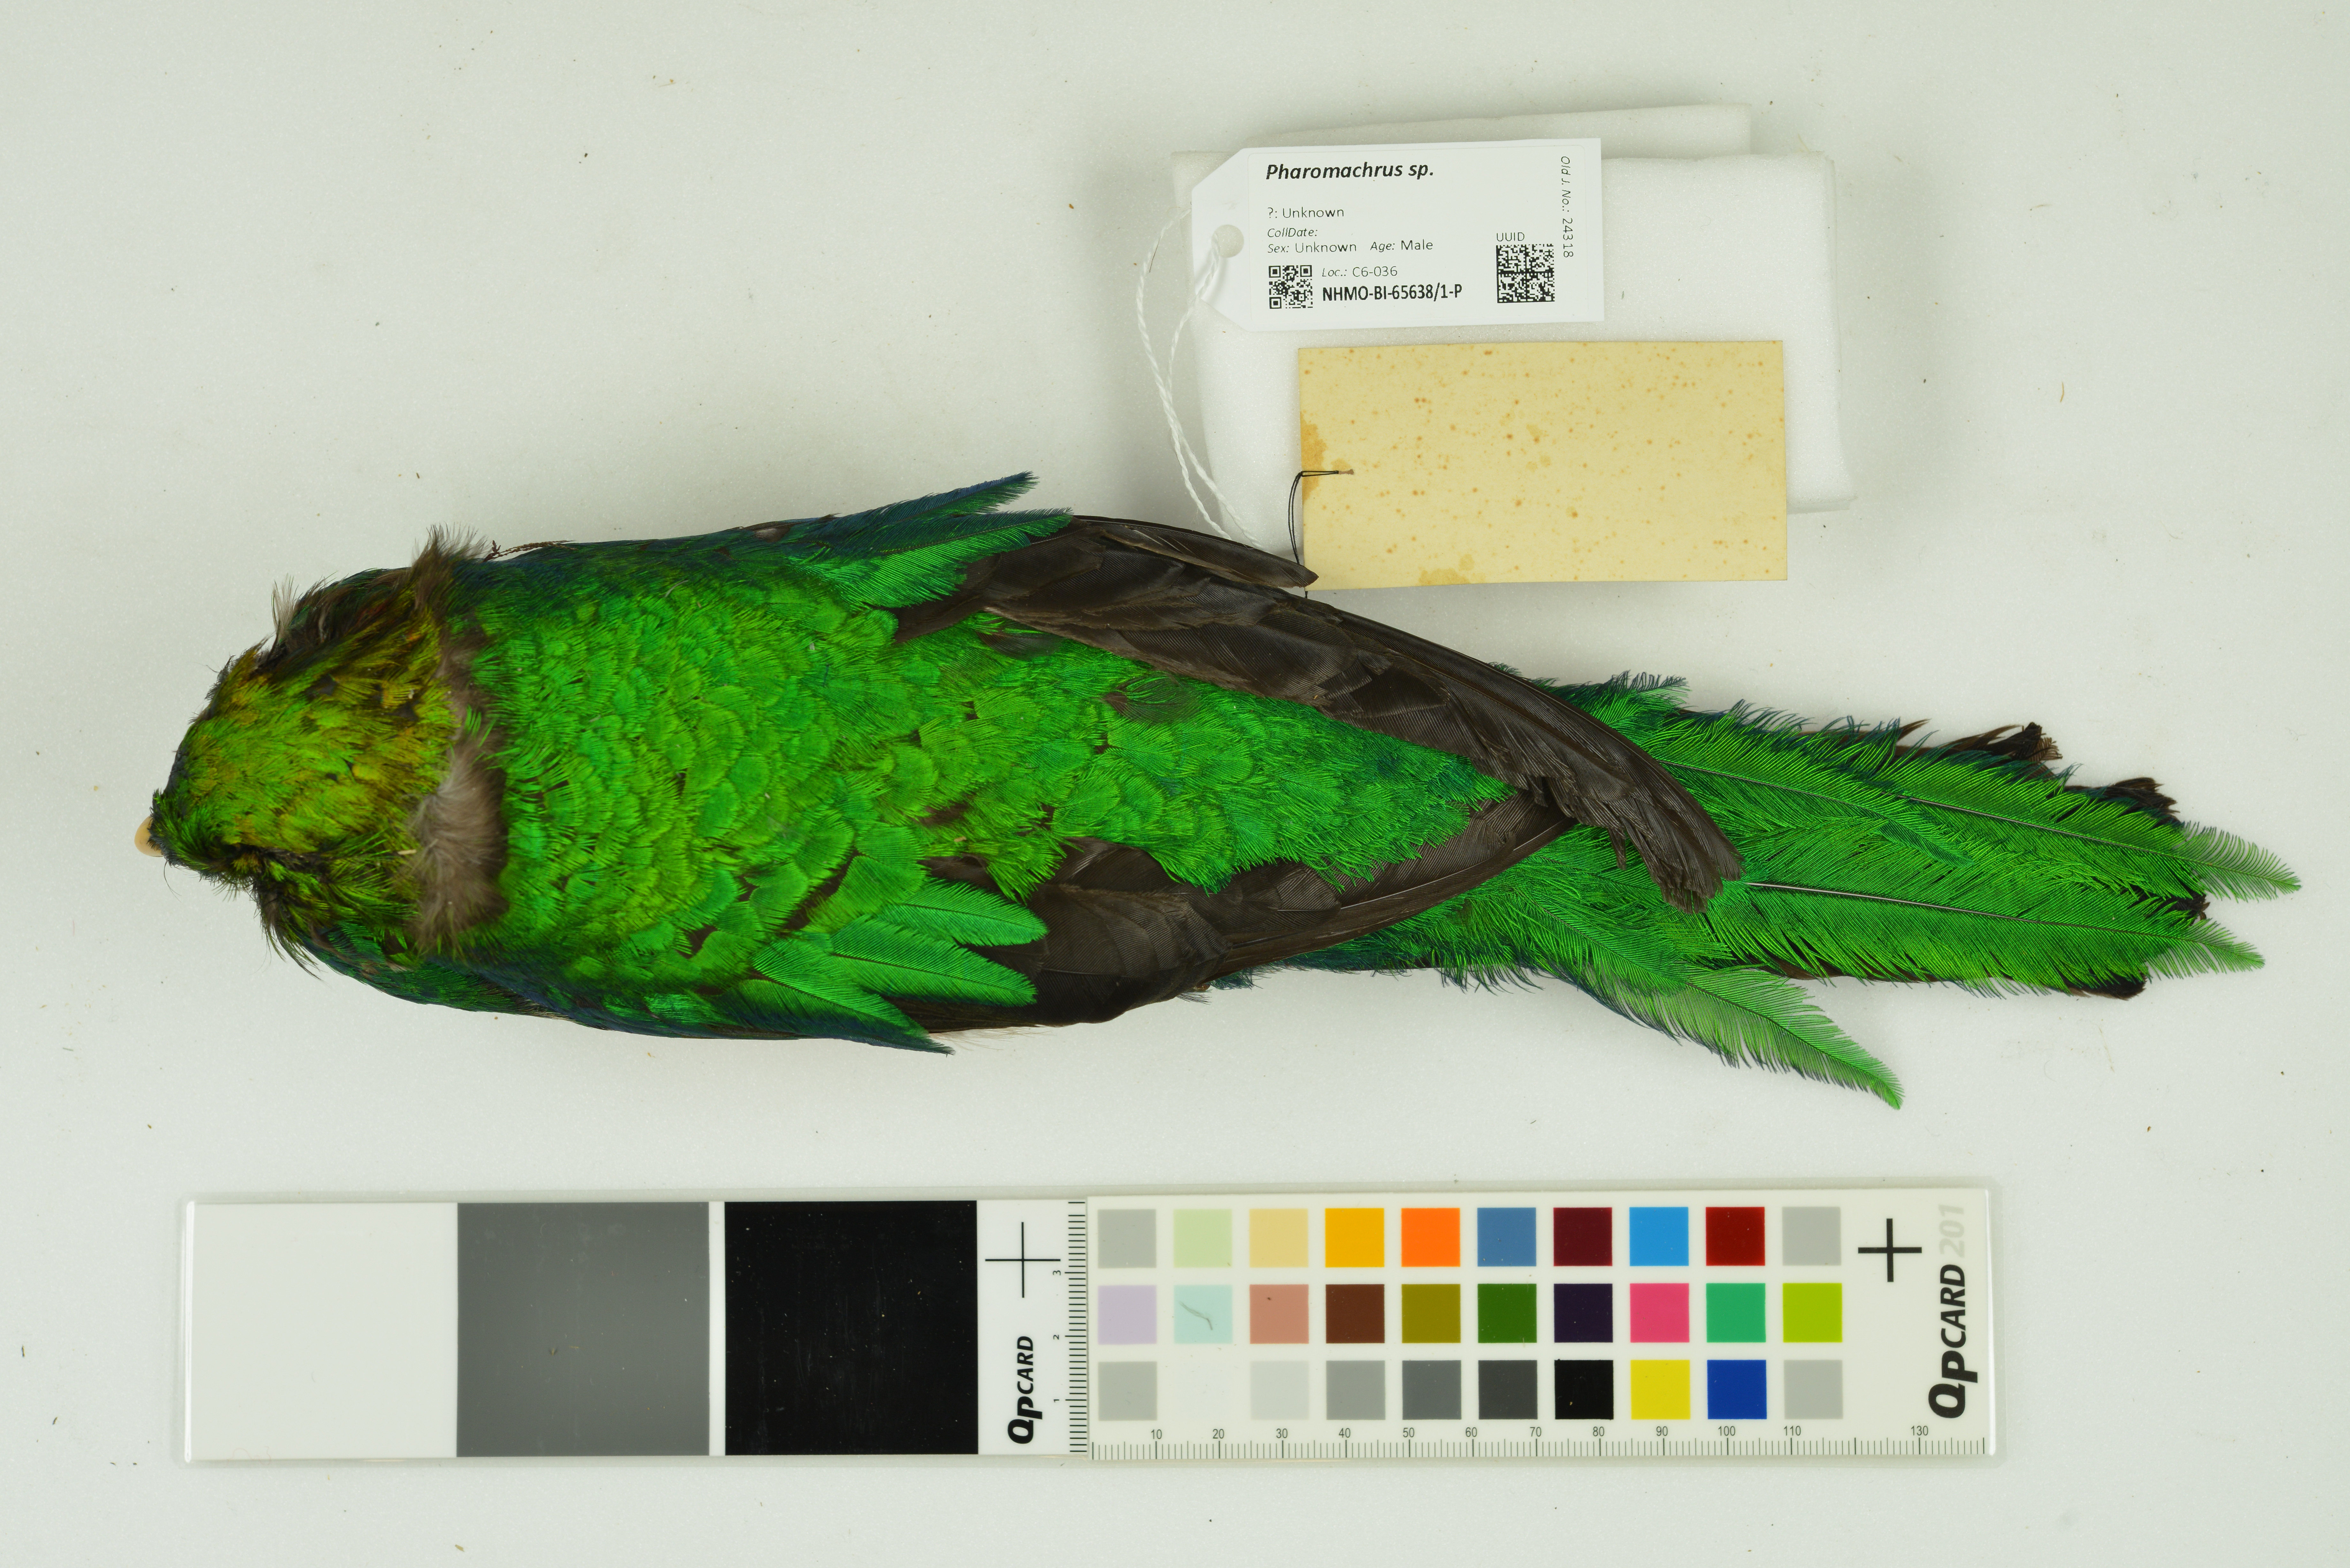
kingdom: Animalia
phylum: Chordata
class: Aves
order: Trogoniformes
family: Trogonidae
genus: Pharomachrus
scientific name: Pharomachrus
